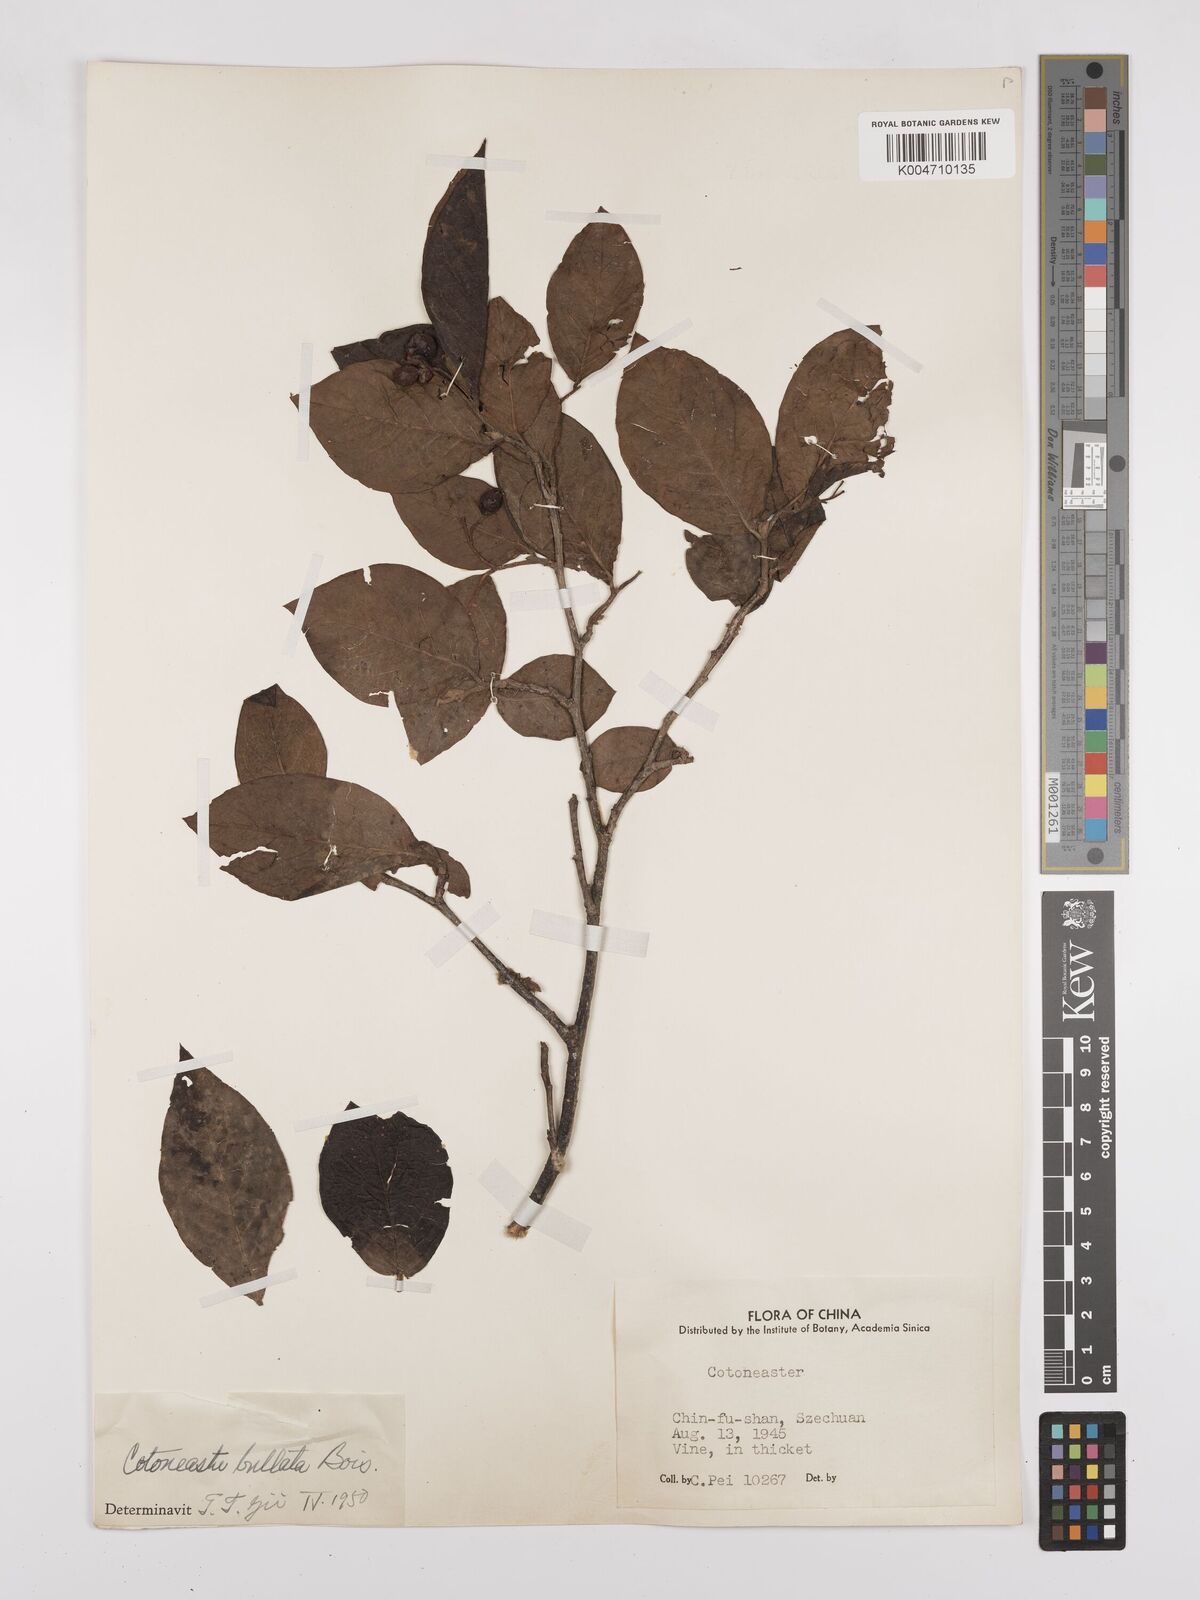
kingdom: Plantae
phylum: Tracheophyta
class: Magnoliopsida
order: Rosales
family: Rosaceae
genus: Cotoneaster
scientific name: Cotoneaster bullatus
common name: Hollyberry cotoneaster
